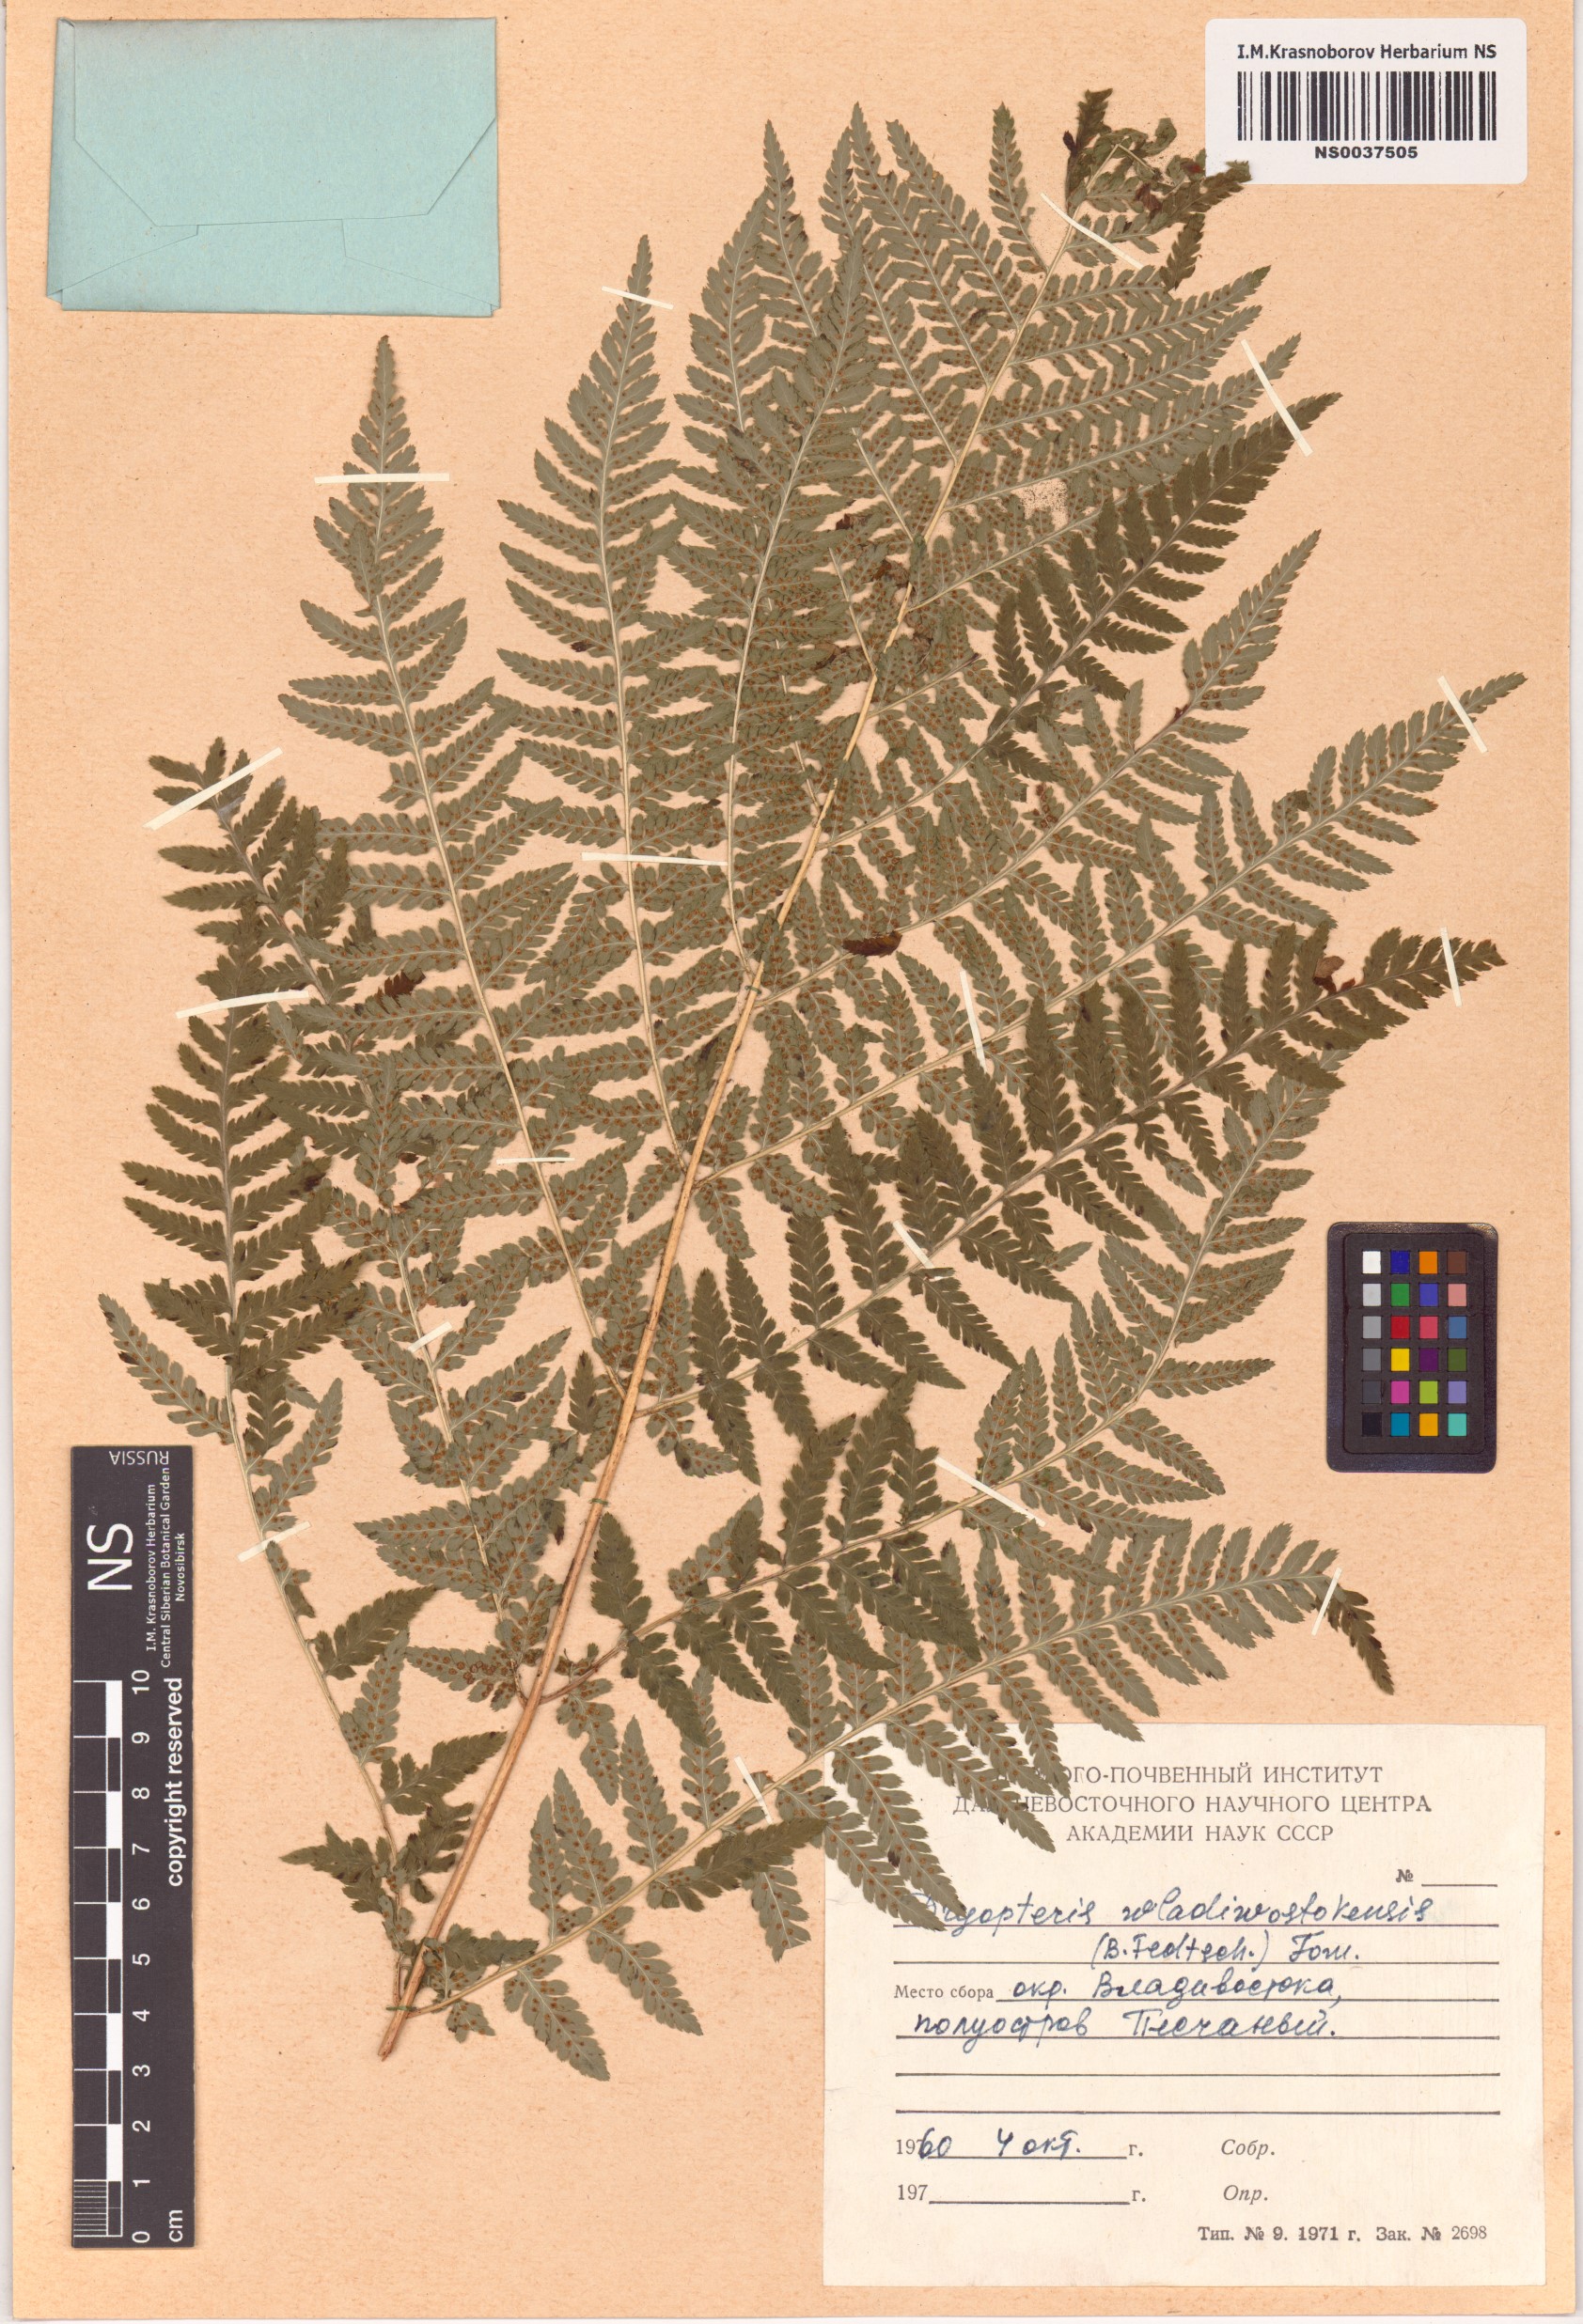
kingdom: Plantae
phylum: Tracheophyta
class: Polypodiopsida
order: Polypodiales
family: Dryopteridaceae
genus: Dryopteris
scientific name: Dryopteris laeta
